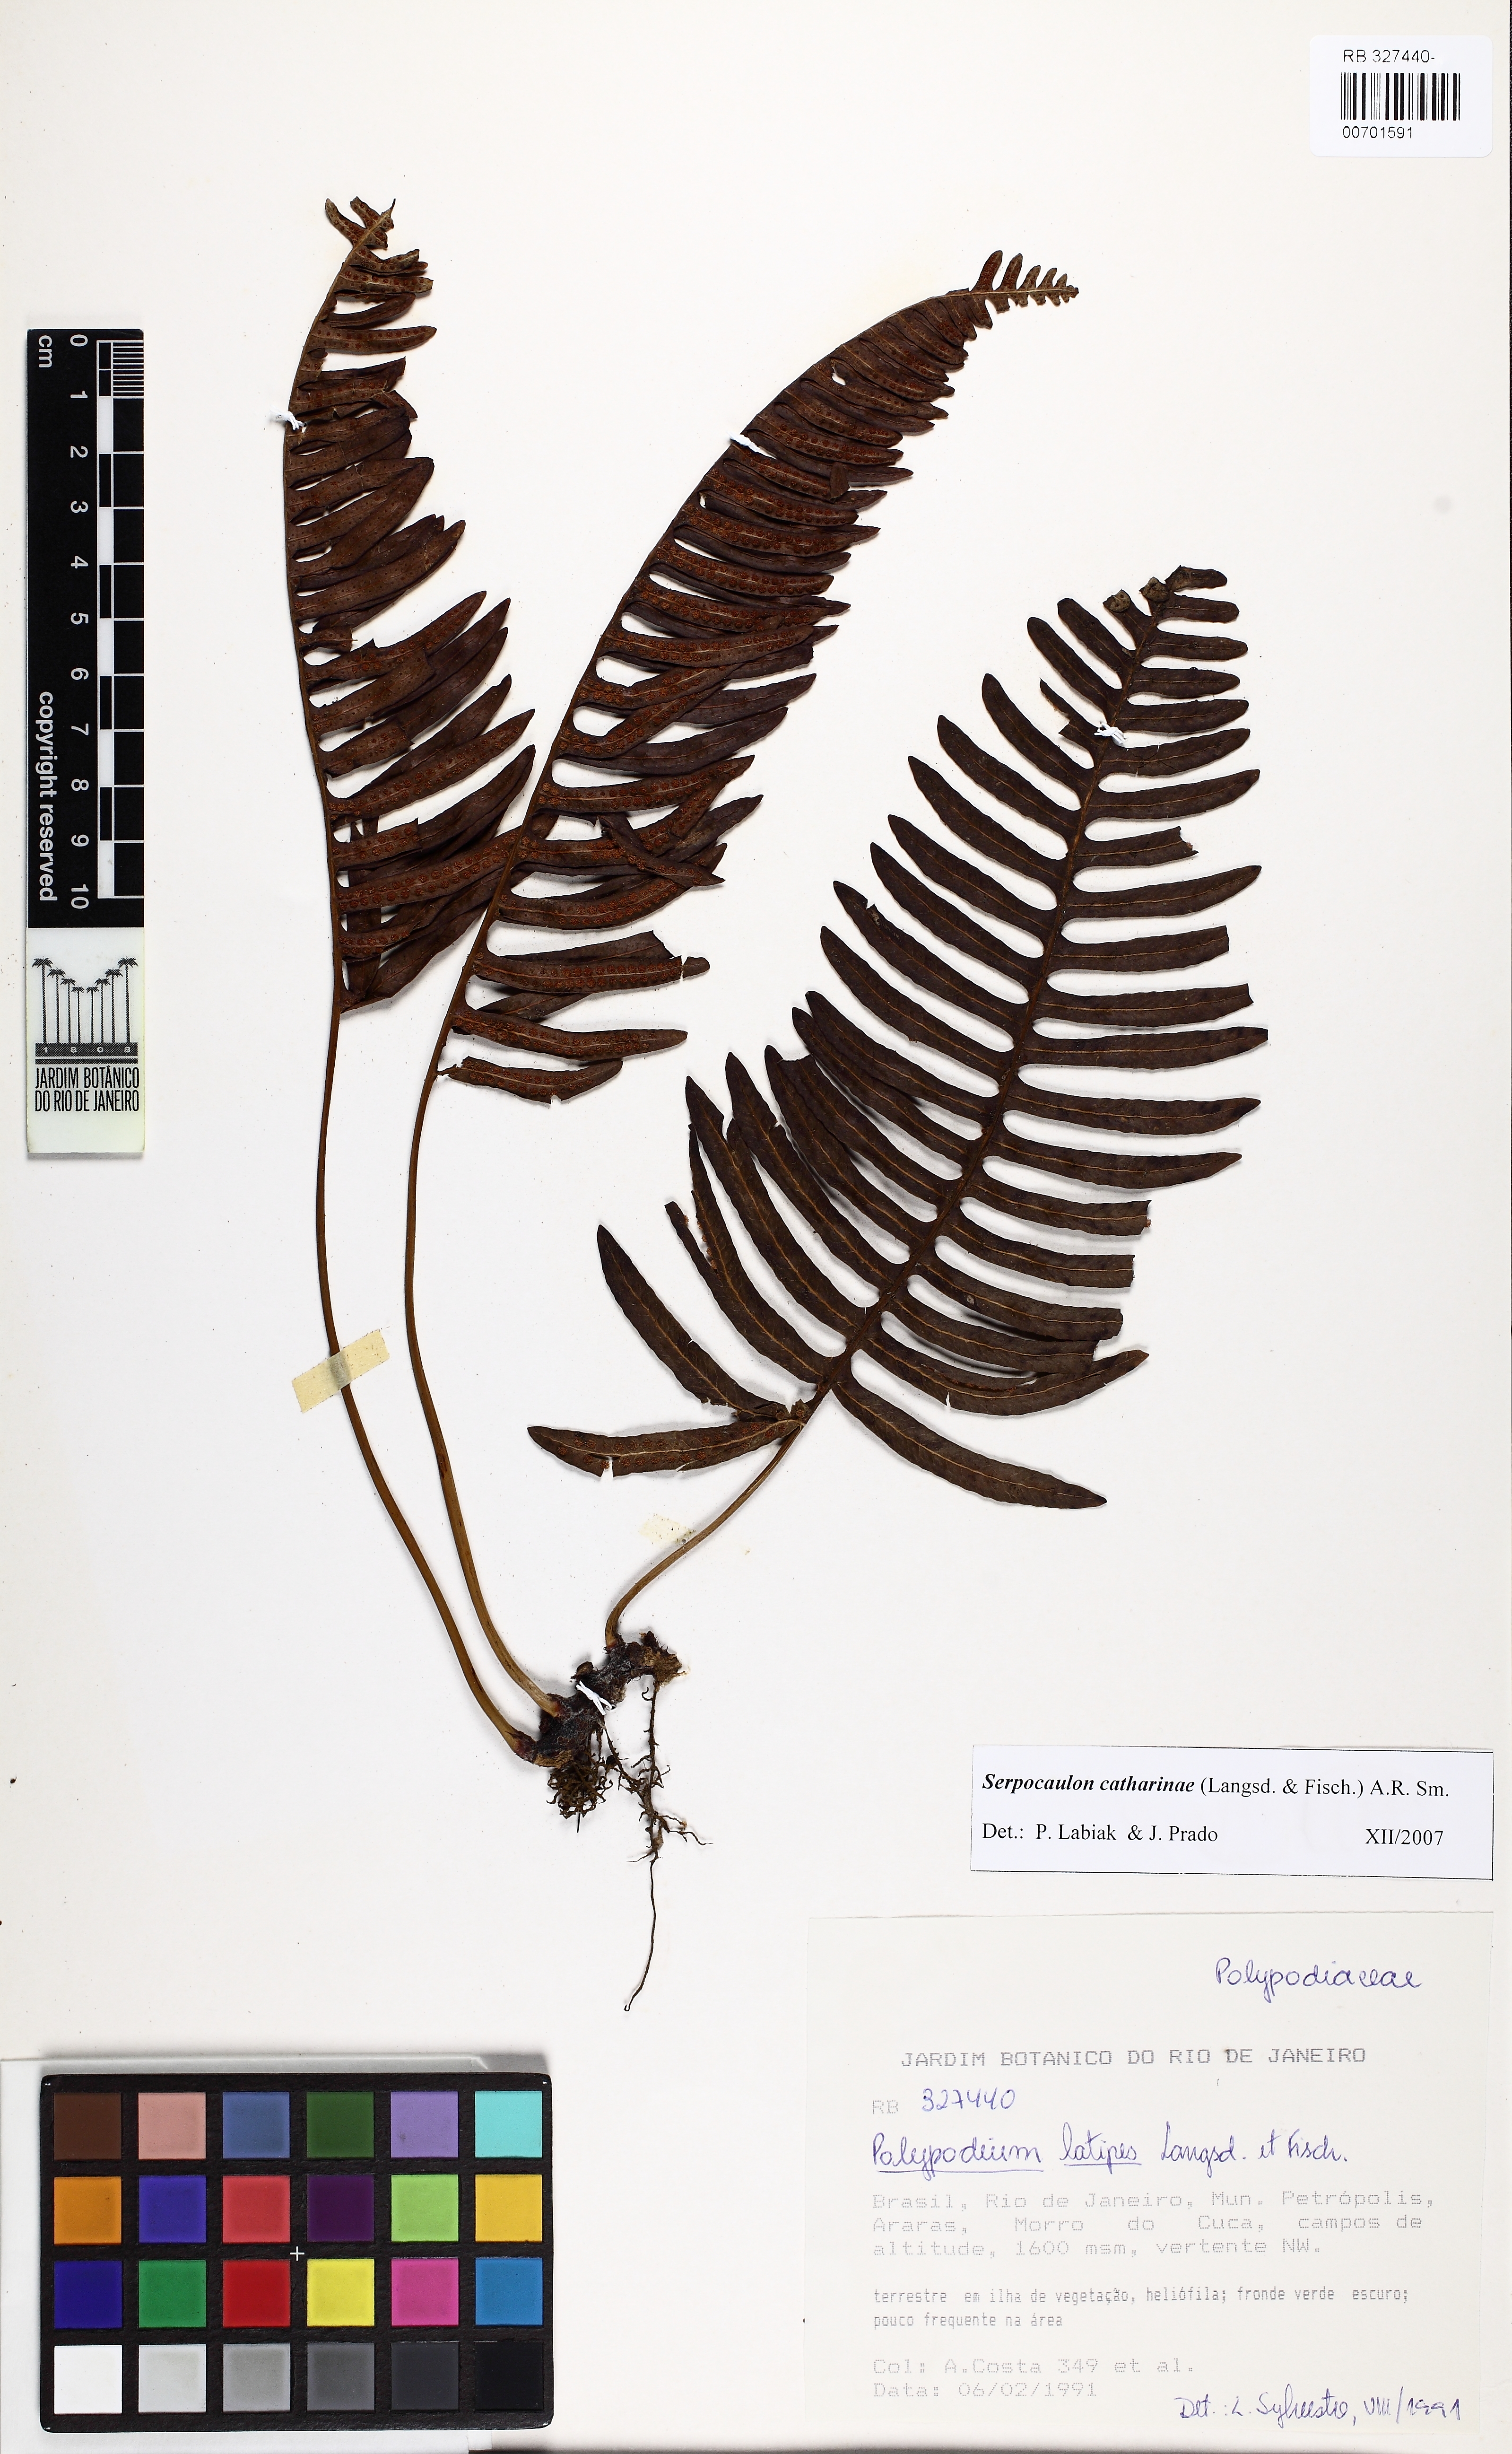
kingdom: Plantae
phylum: Tracheophyta
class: Polypodiopsida
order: Polypodiales
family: Polypodiaceae
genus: Serpocaulon
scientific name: Serpocaulon catharinae
